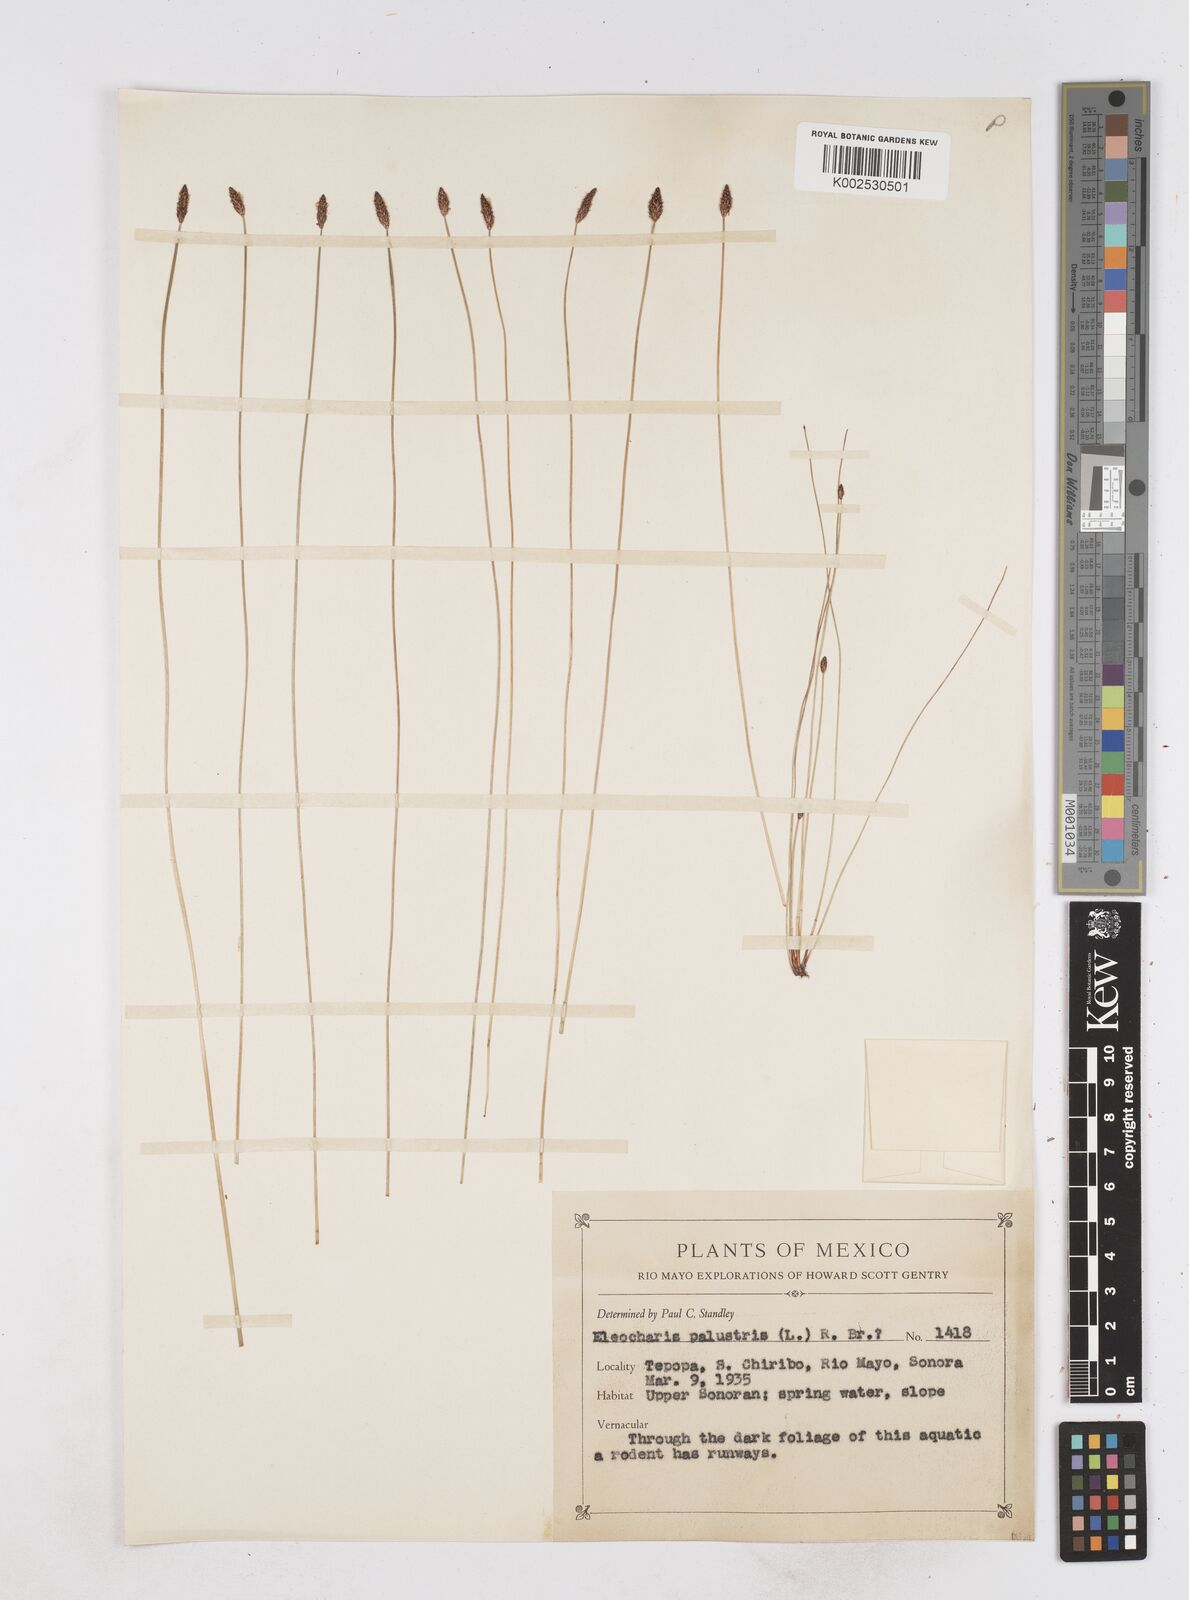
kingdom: Plantae
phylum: Tracheophyta
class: Liliopsida
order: Poales
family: Cyperaceae
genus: Eleocharis
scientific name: Eleocharis palustris
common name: Common spike-rush
